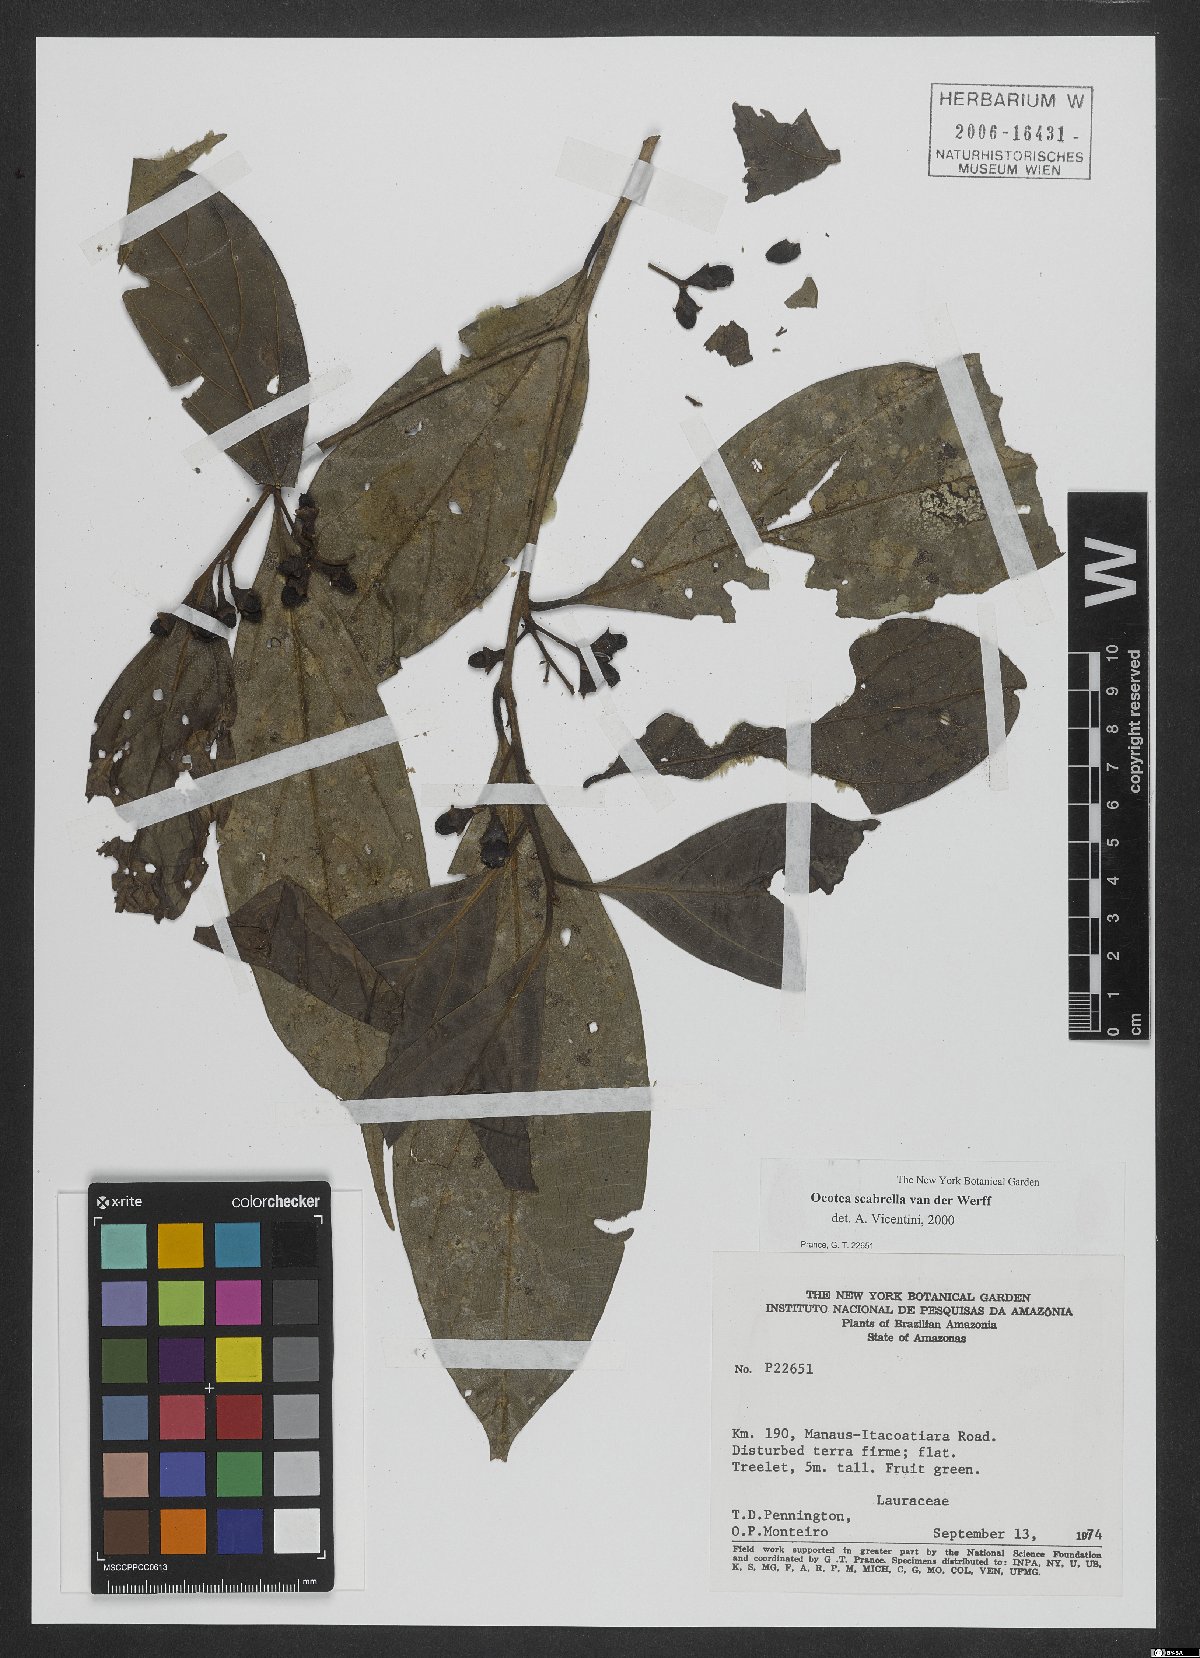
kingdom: Plantae
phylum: Tracheophyta
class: Magnoliopsida
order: Laurales
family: Lauraceae
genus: Ocotea
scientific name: Ocotea scabrella
